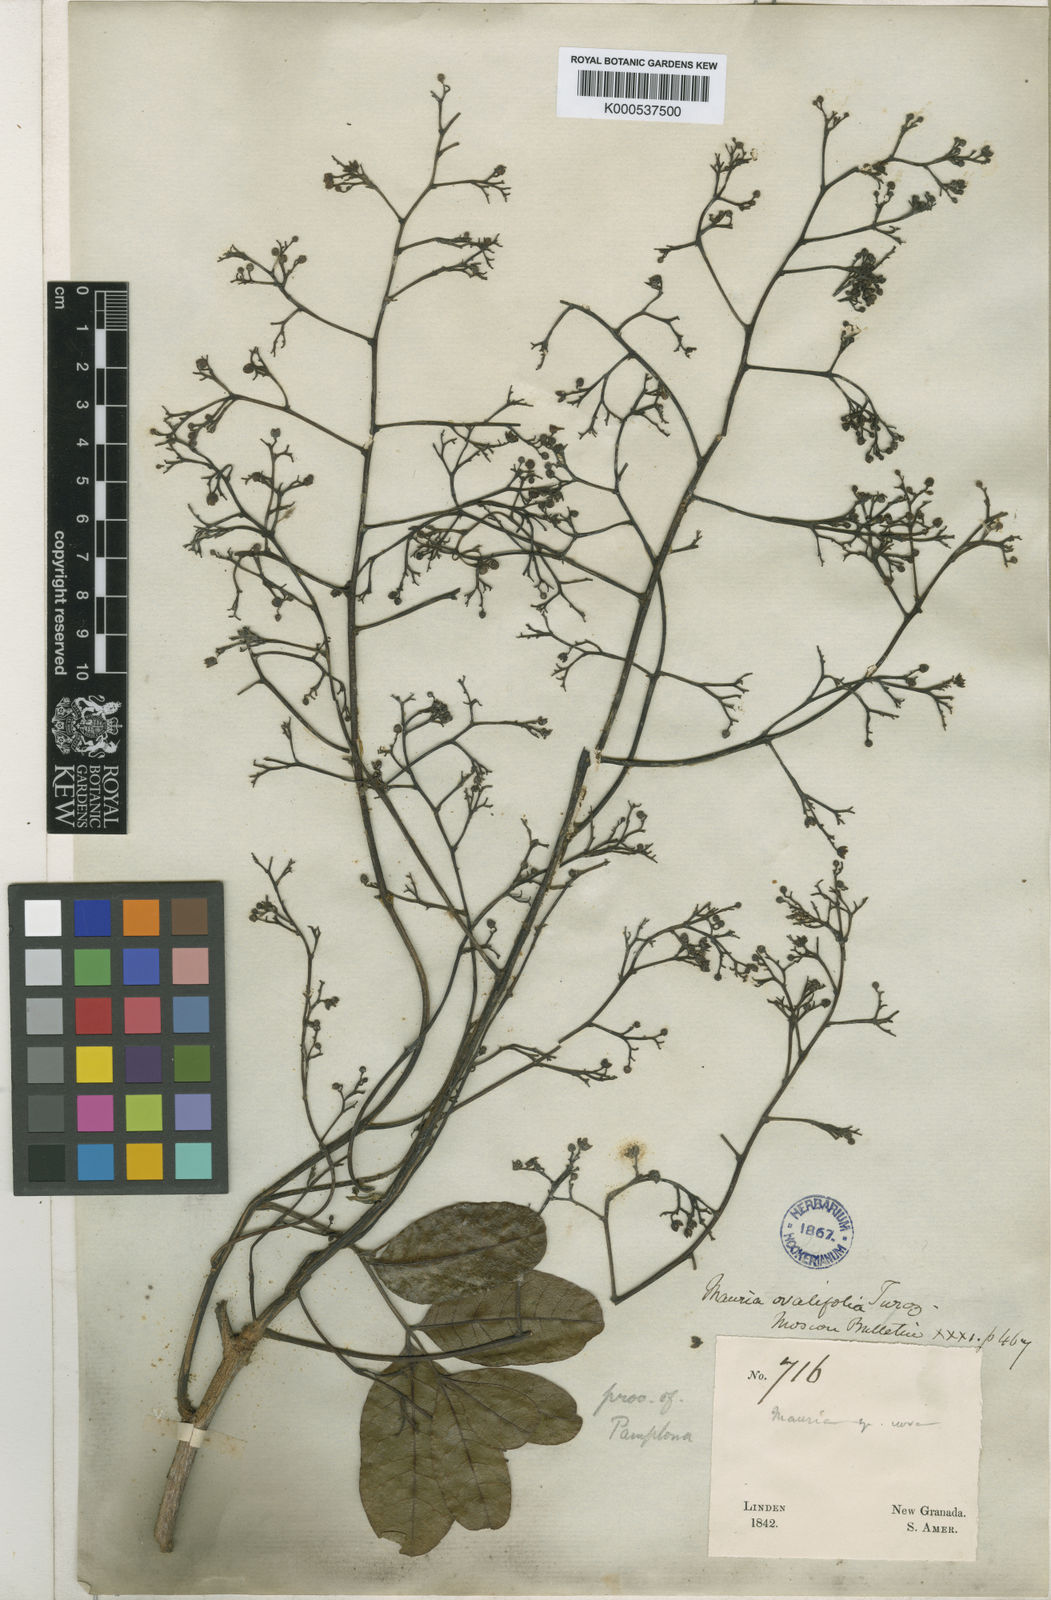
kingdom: Plantae
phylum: Tracheophyta
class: Magnoliopsida
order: Sapindales
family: Anacardiaceae
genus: Mauria
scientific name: Mauria heterophylla
